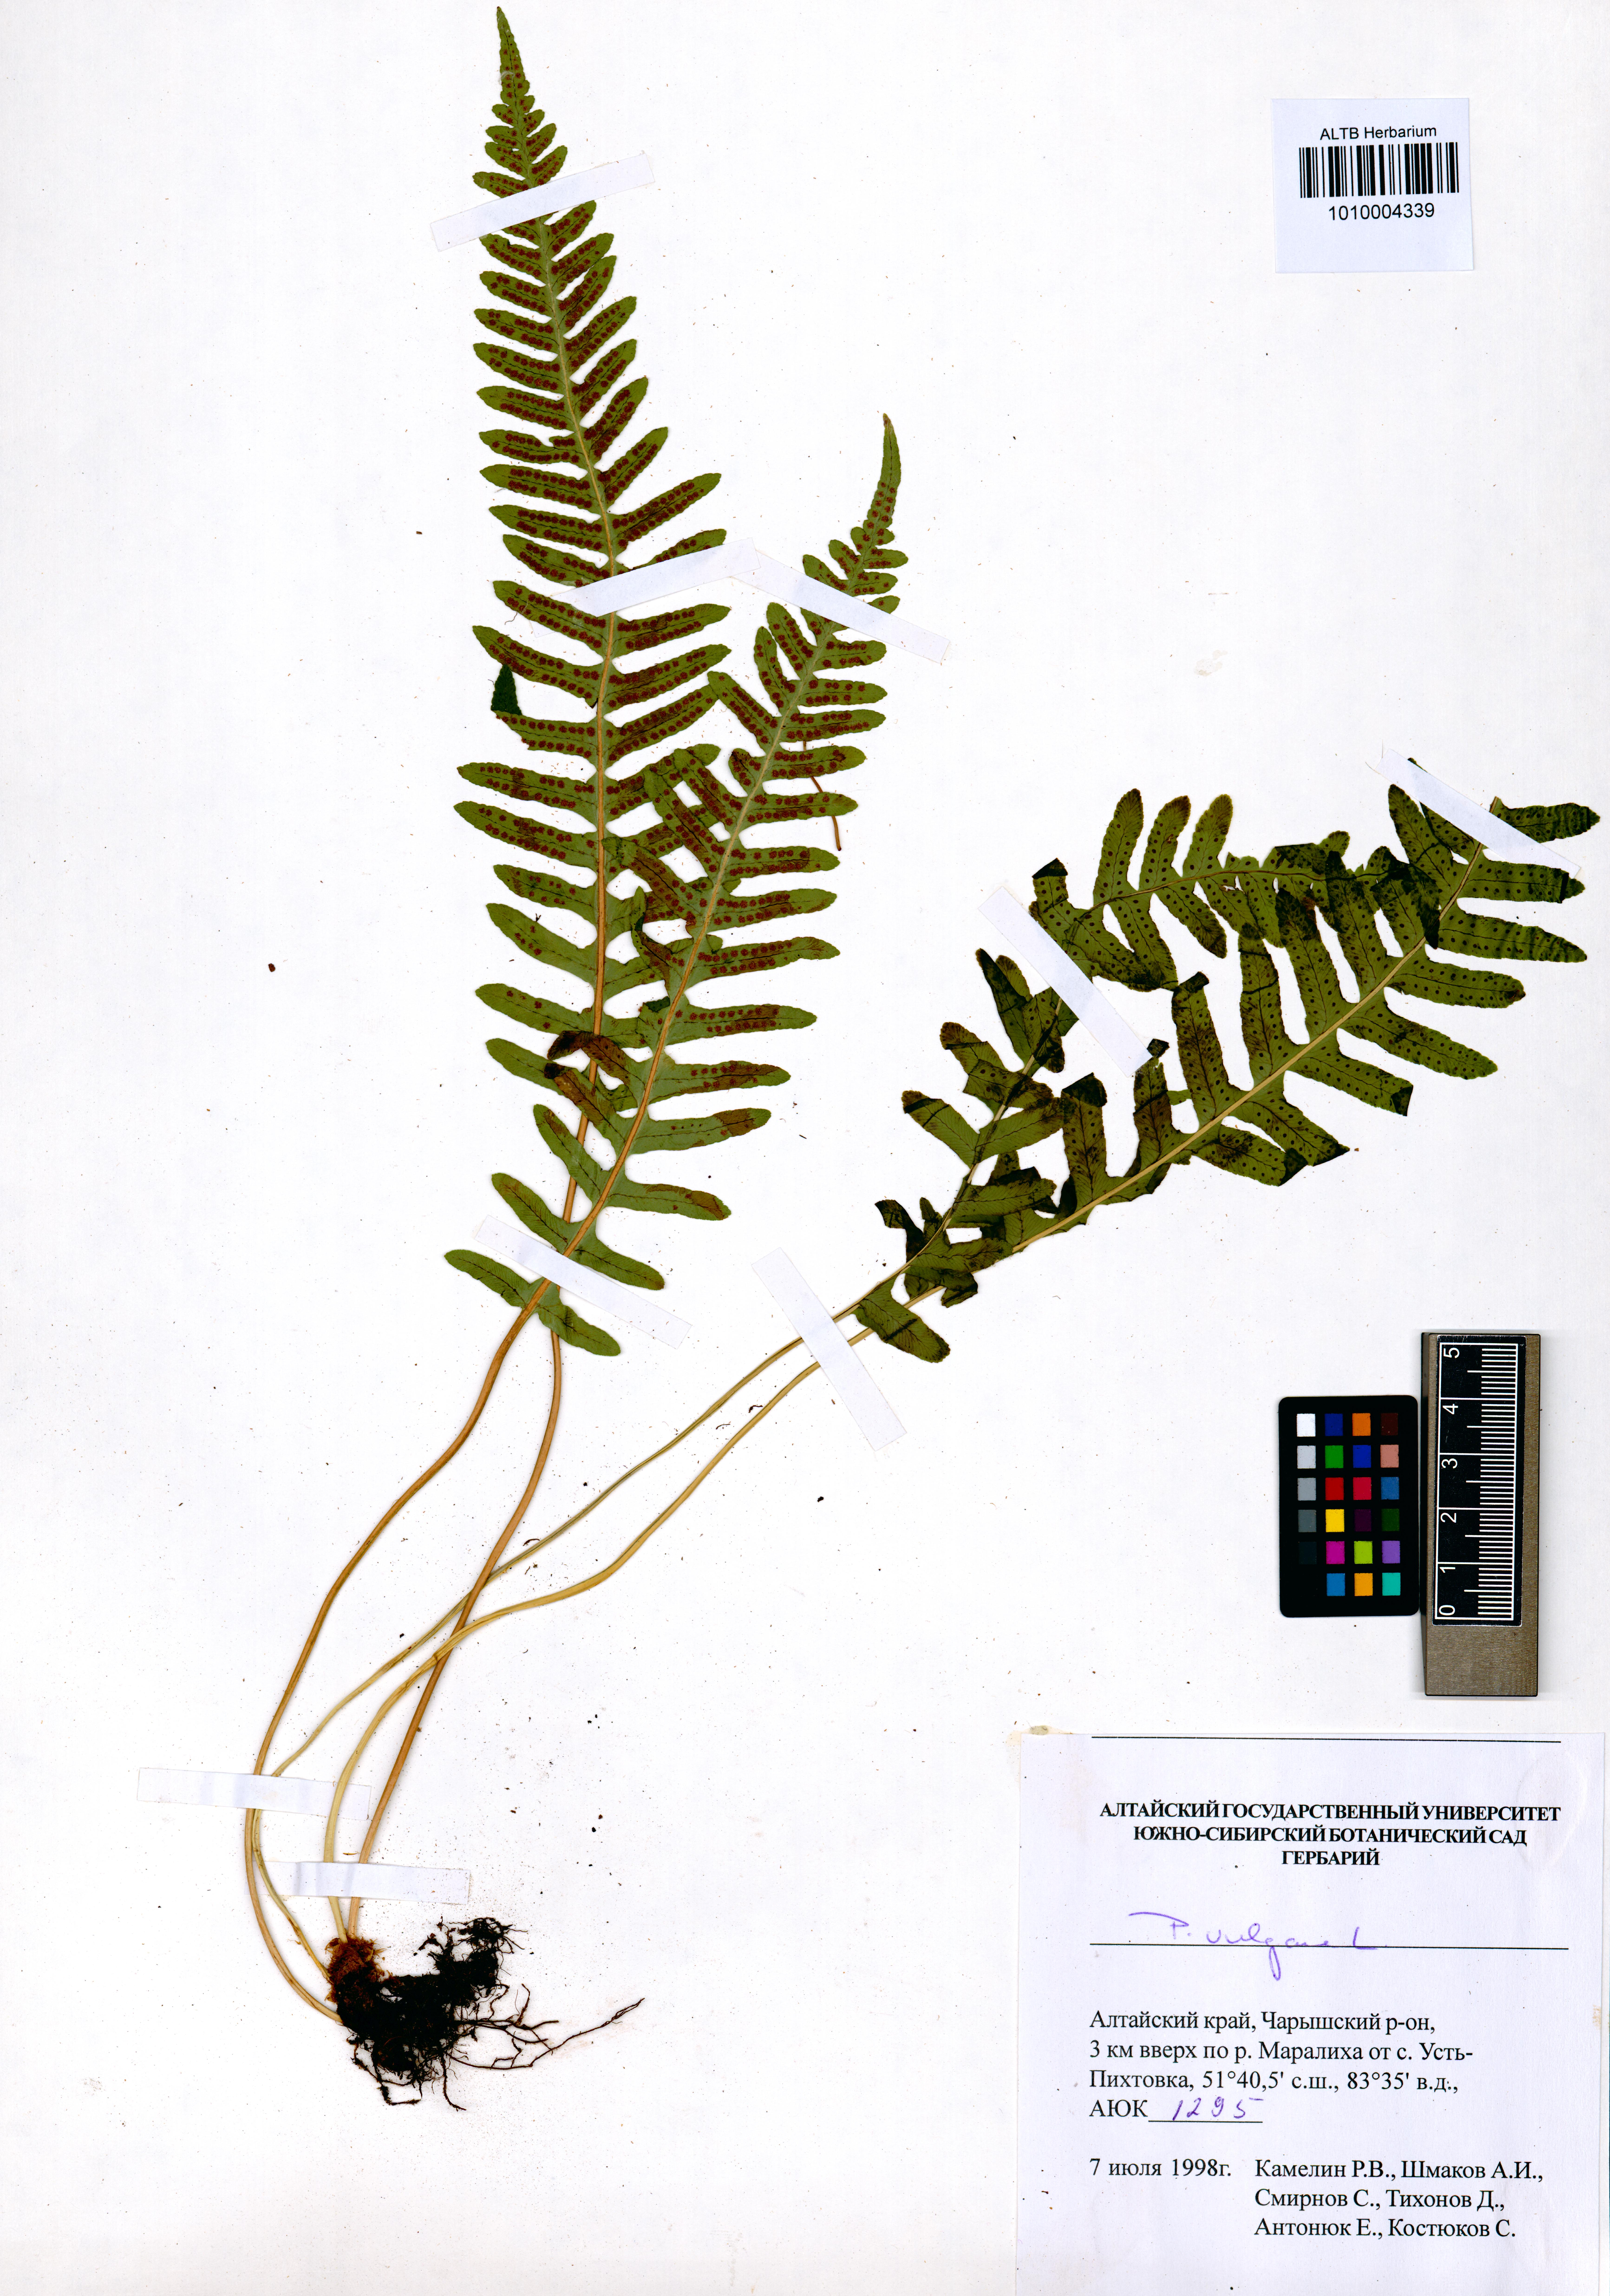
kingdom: Plantae
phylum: Tracheophyta
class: Polypodiopsida
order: Polypodiales
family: Polypodiaceae
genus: Polypodium
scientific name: Polypodium vulgare
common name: Common polypody
